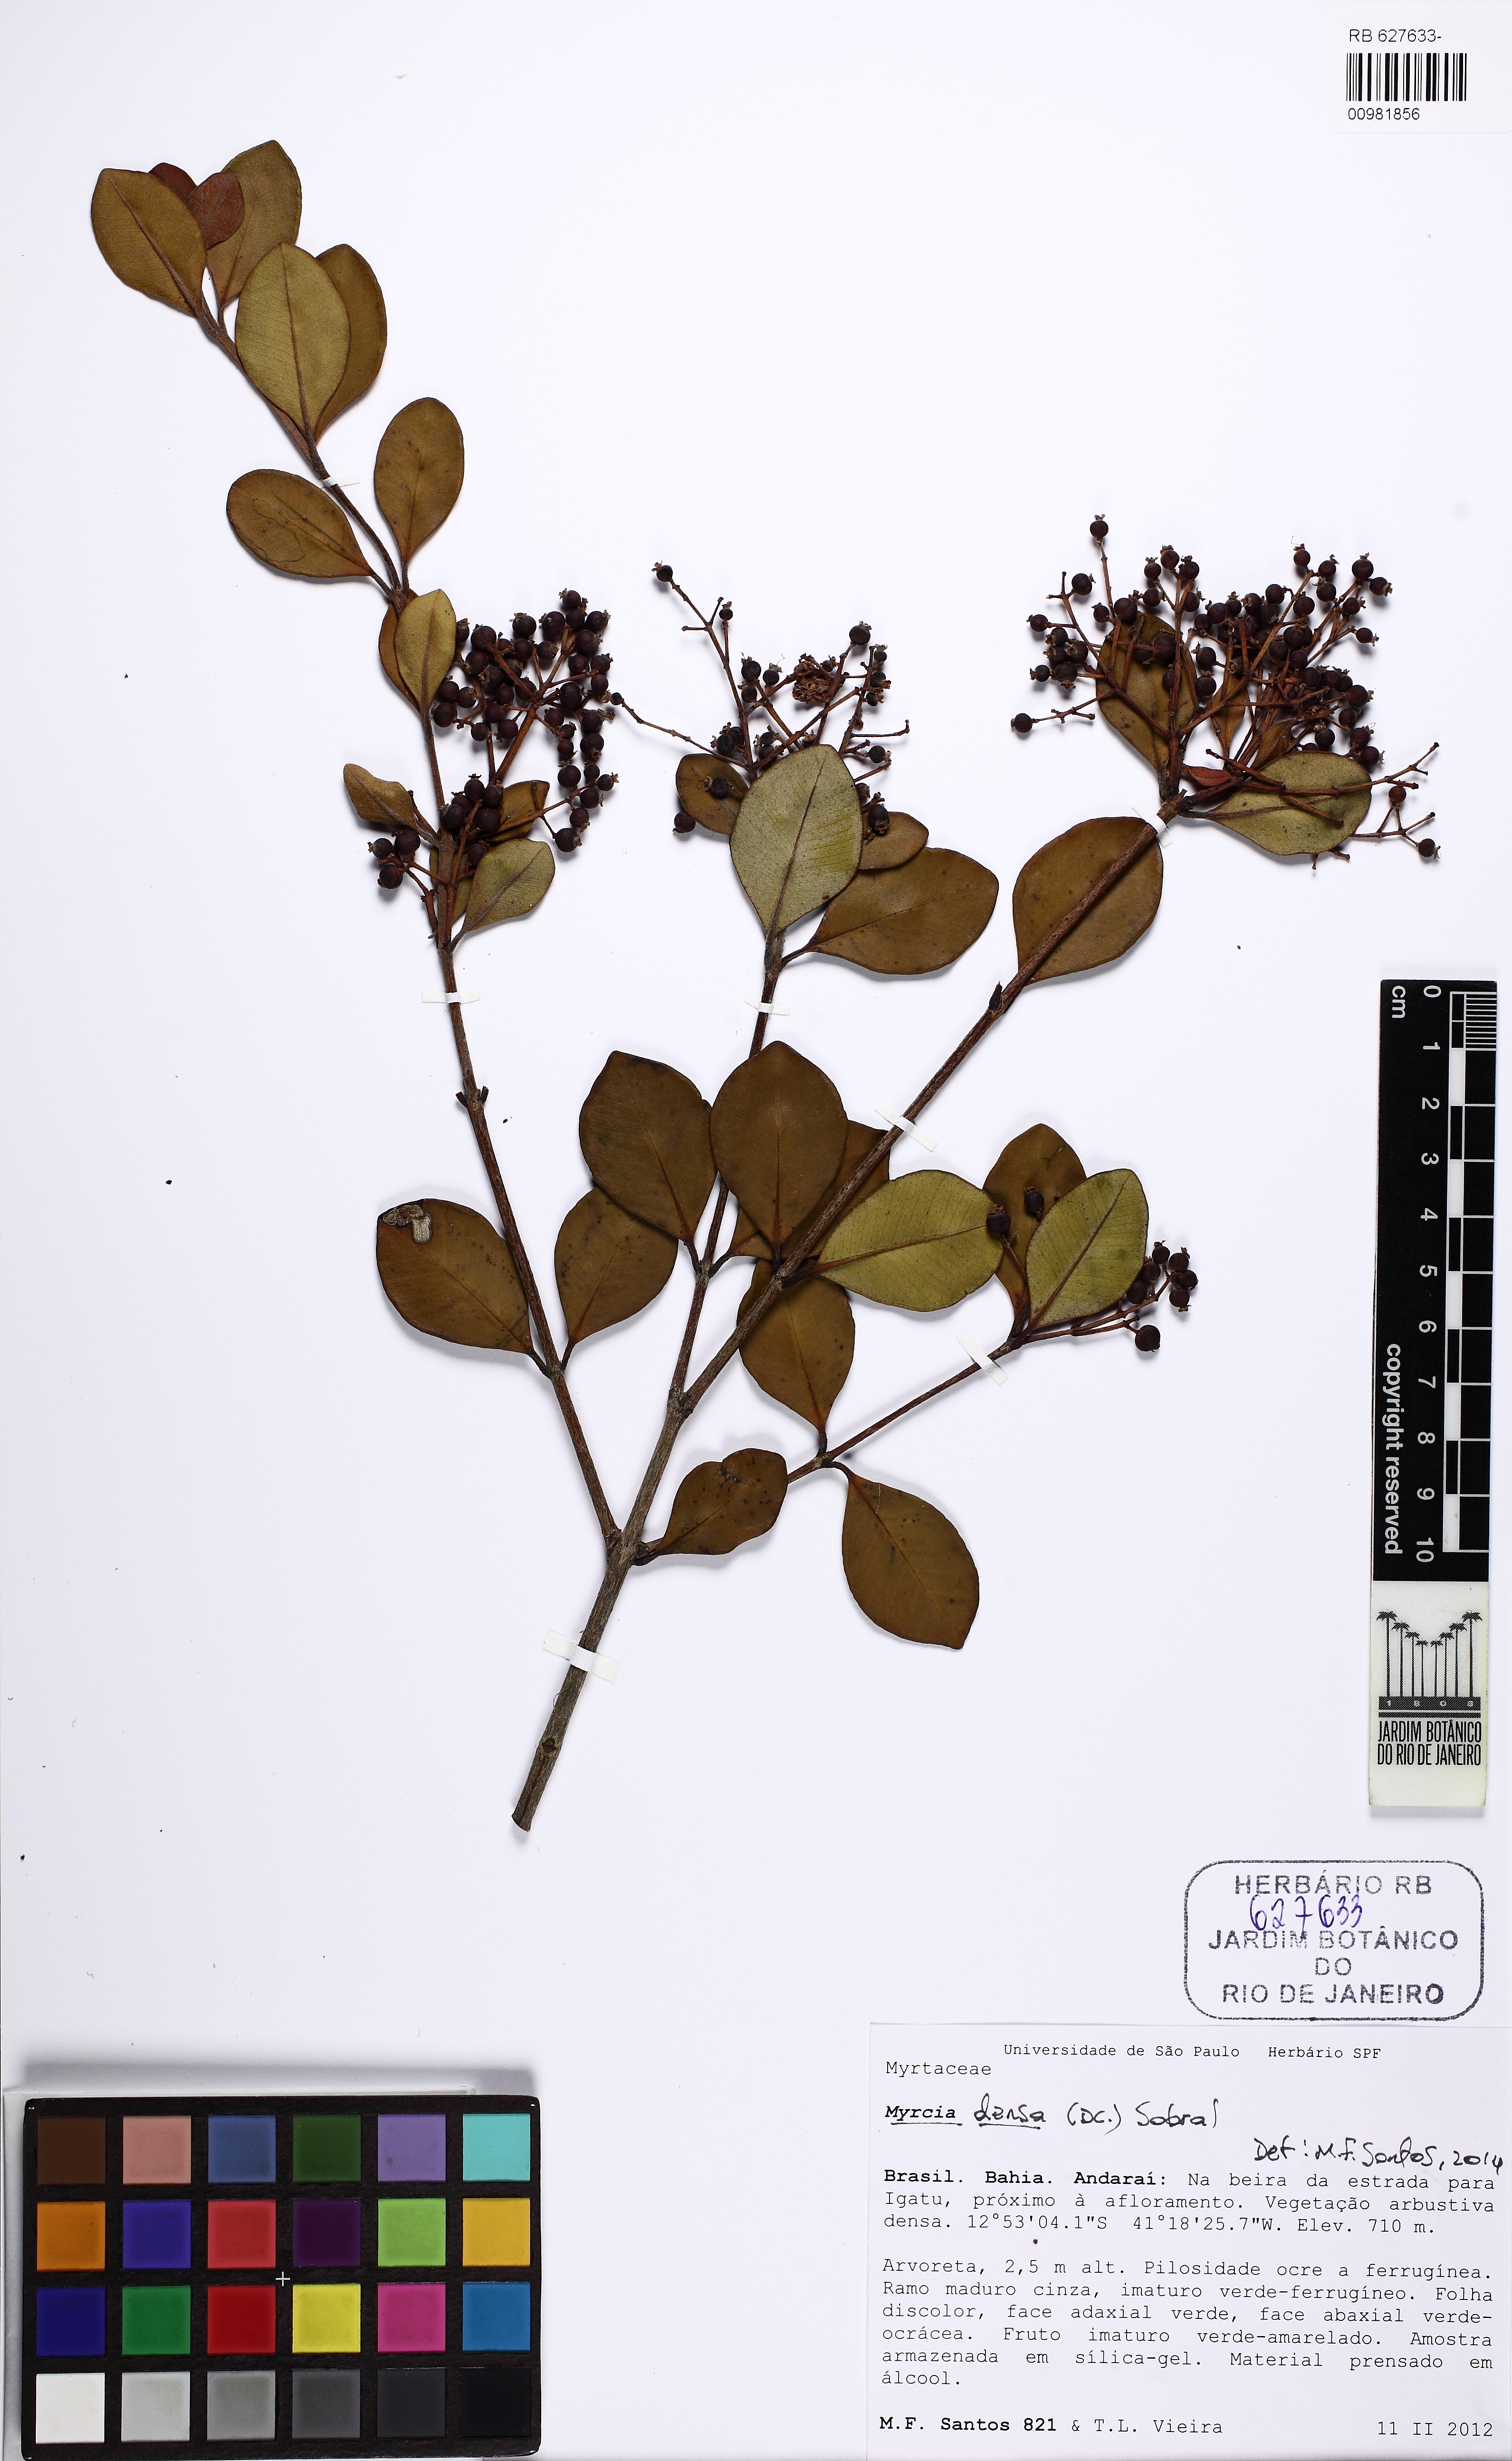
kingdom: Plantae
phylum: Tracheophyta
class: Magnoliopsida
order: Myrtales
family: Myrtaceae
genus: Myrcia
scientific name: Myrcia densa
